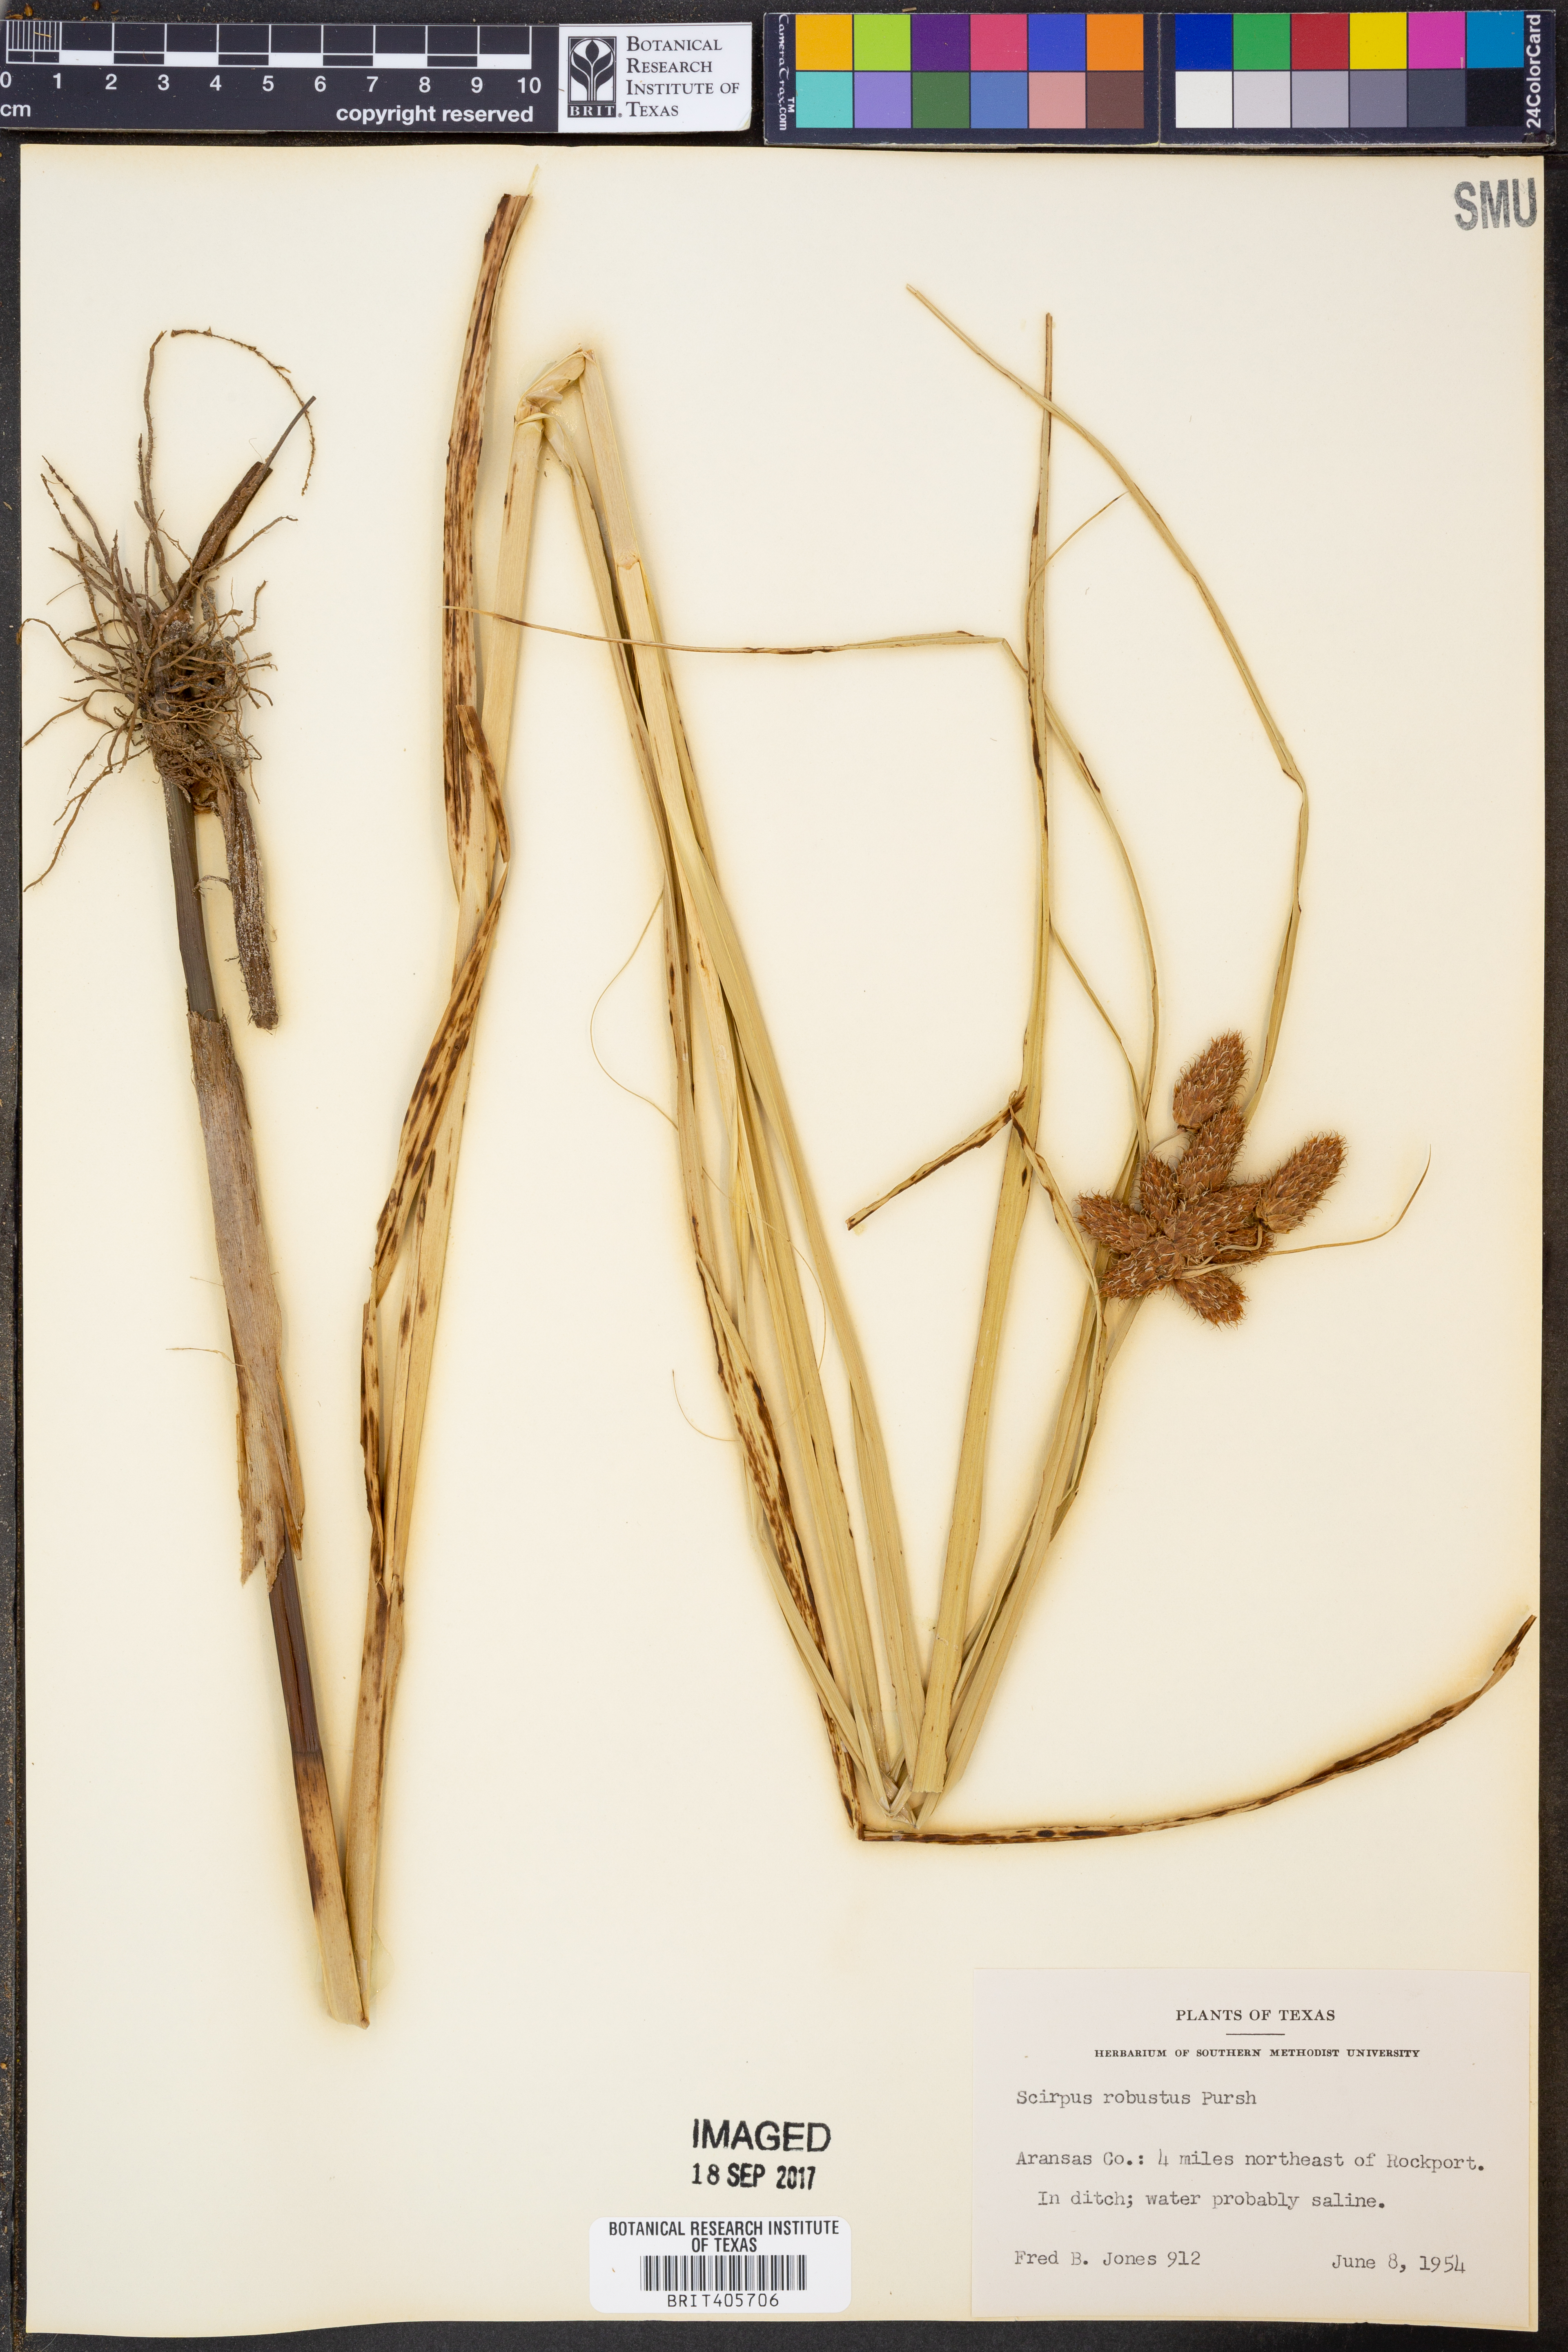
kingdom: Plantae
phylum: Tracheophyta
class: Liliopsida
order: Poales
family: Cyperaceae
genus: Bolboschoenus
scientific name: Bolboschoenus robustus
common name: Seacoast bulrush
